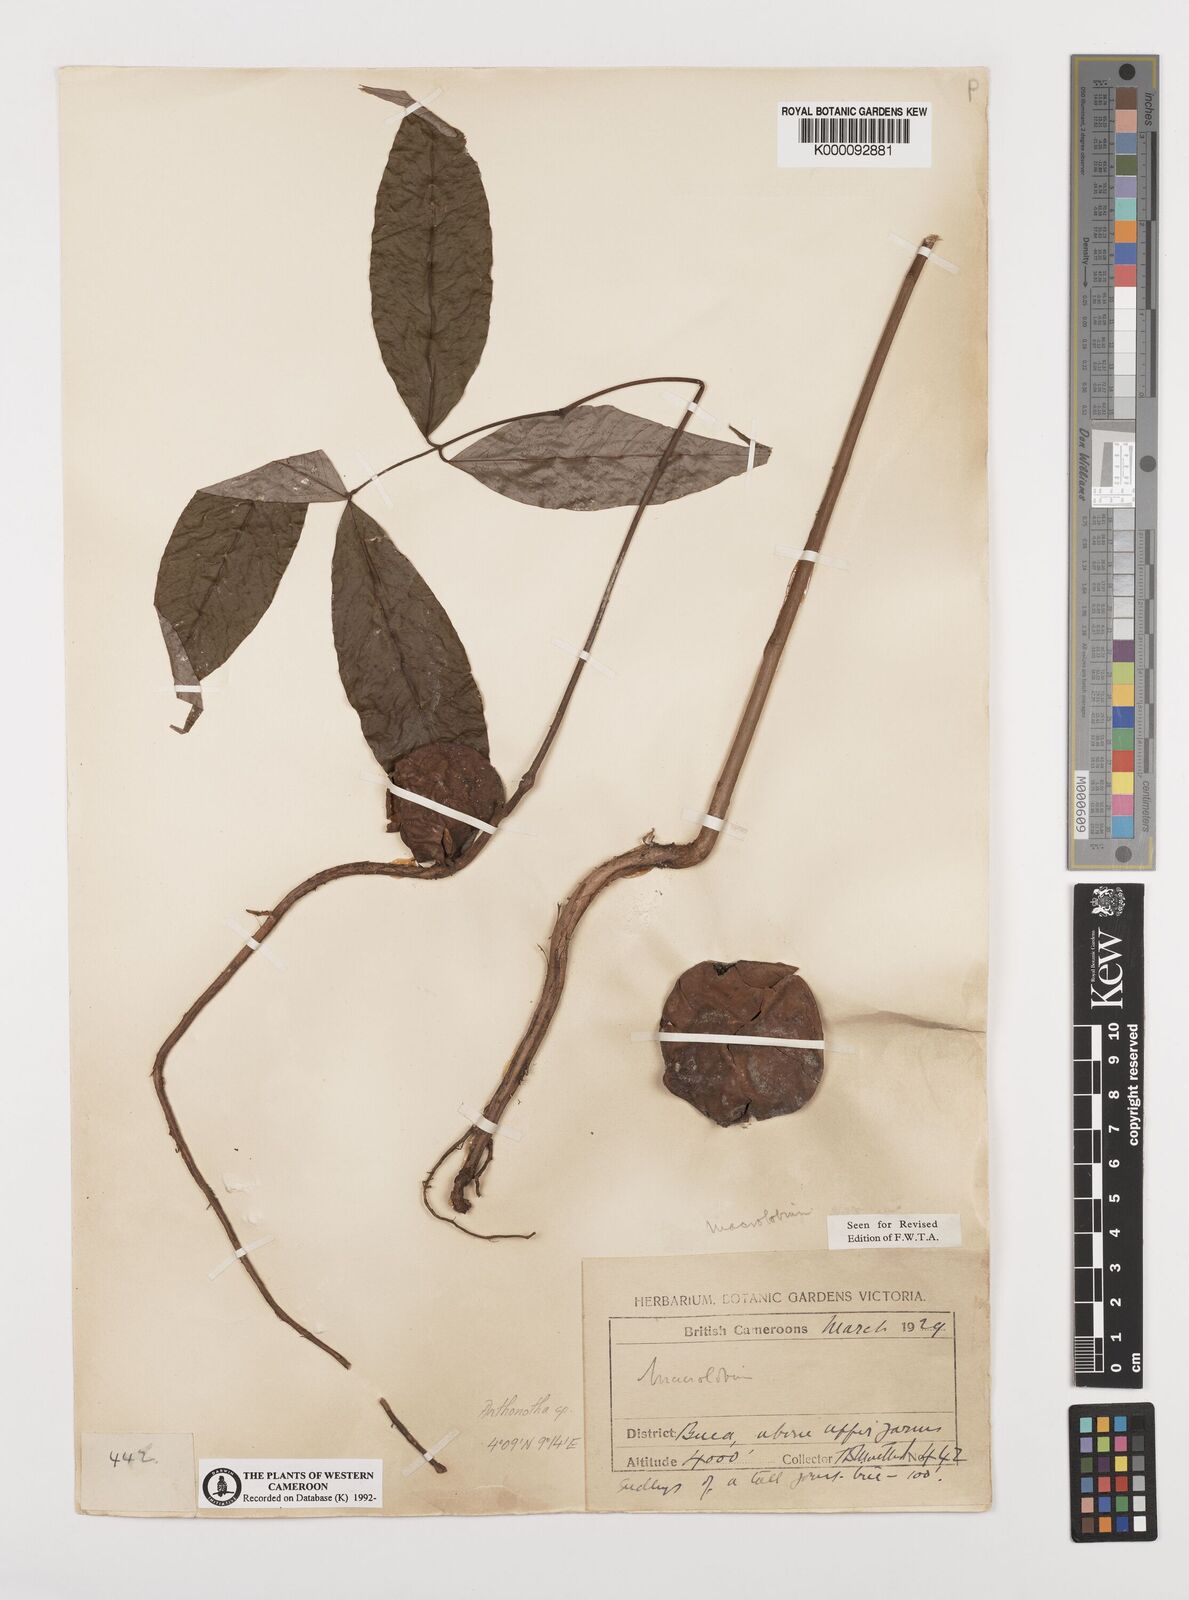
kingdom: Plantae
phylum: Tracheophyta
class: Magnoliopsida
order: Fabales
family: Fabaceae
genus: Anthonotha
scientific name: Anthonotha
